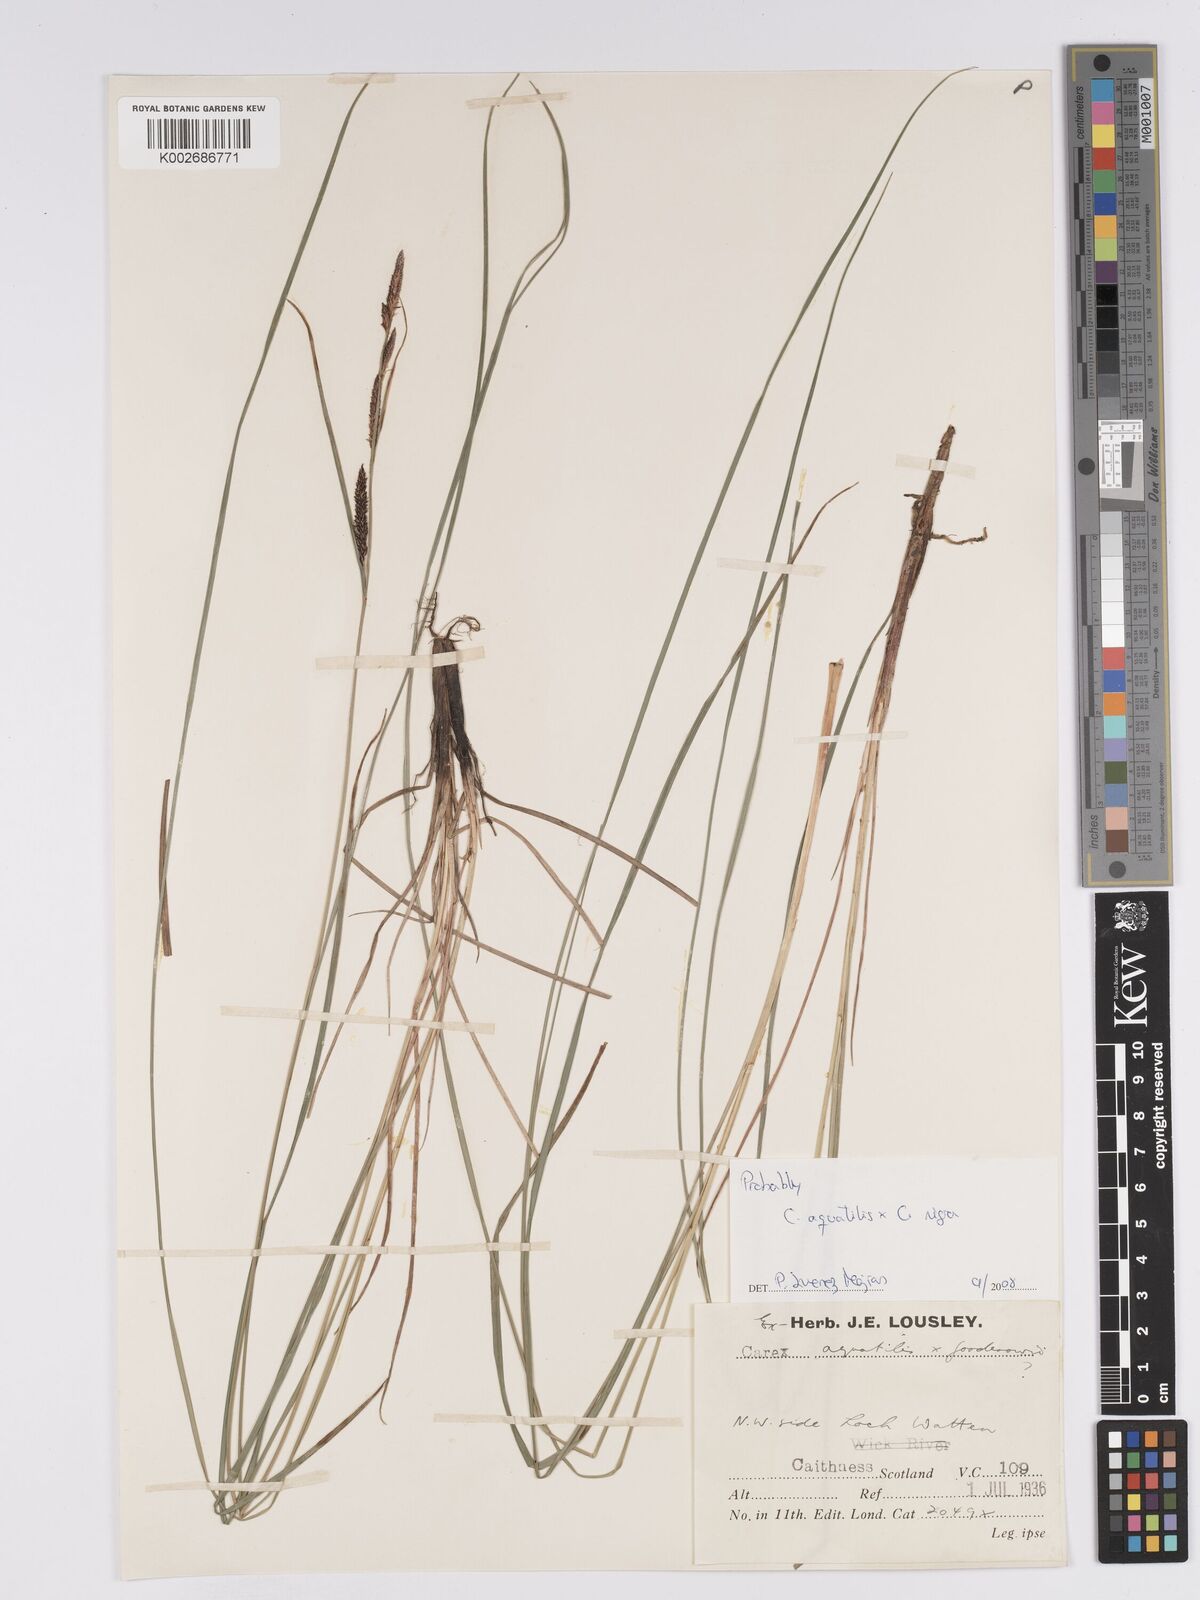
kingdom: Plantae
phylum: Tracheophyta
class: Liliopsida
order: Poales
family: Cyperaceae
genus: Carex
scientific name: Carex microcarpa
